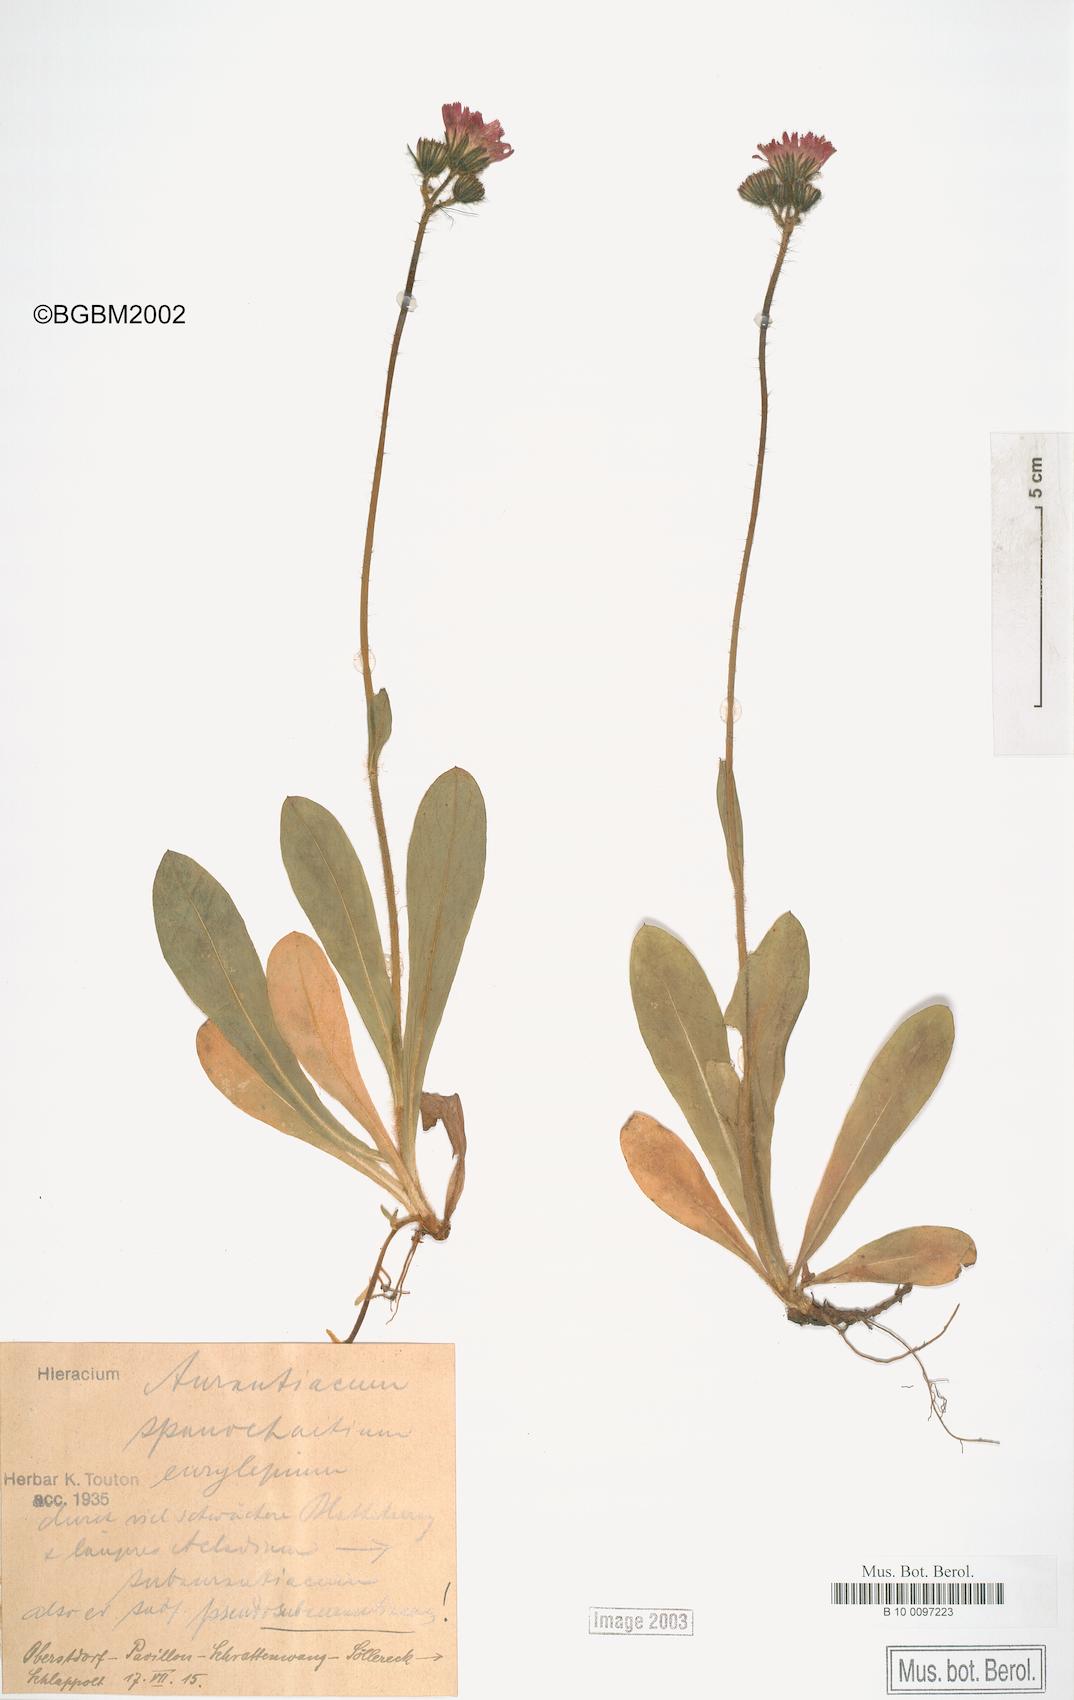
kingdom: Plantae
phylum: Tracheophyta
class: Magnoliopsida
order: Asterales
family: Asteraceae
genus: Pilosella
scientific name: Pilosella aurantiaca
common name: Fox-and-cubs
